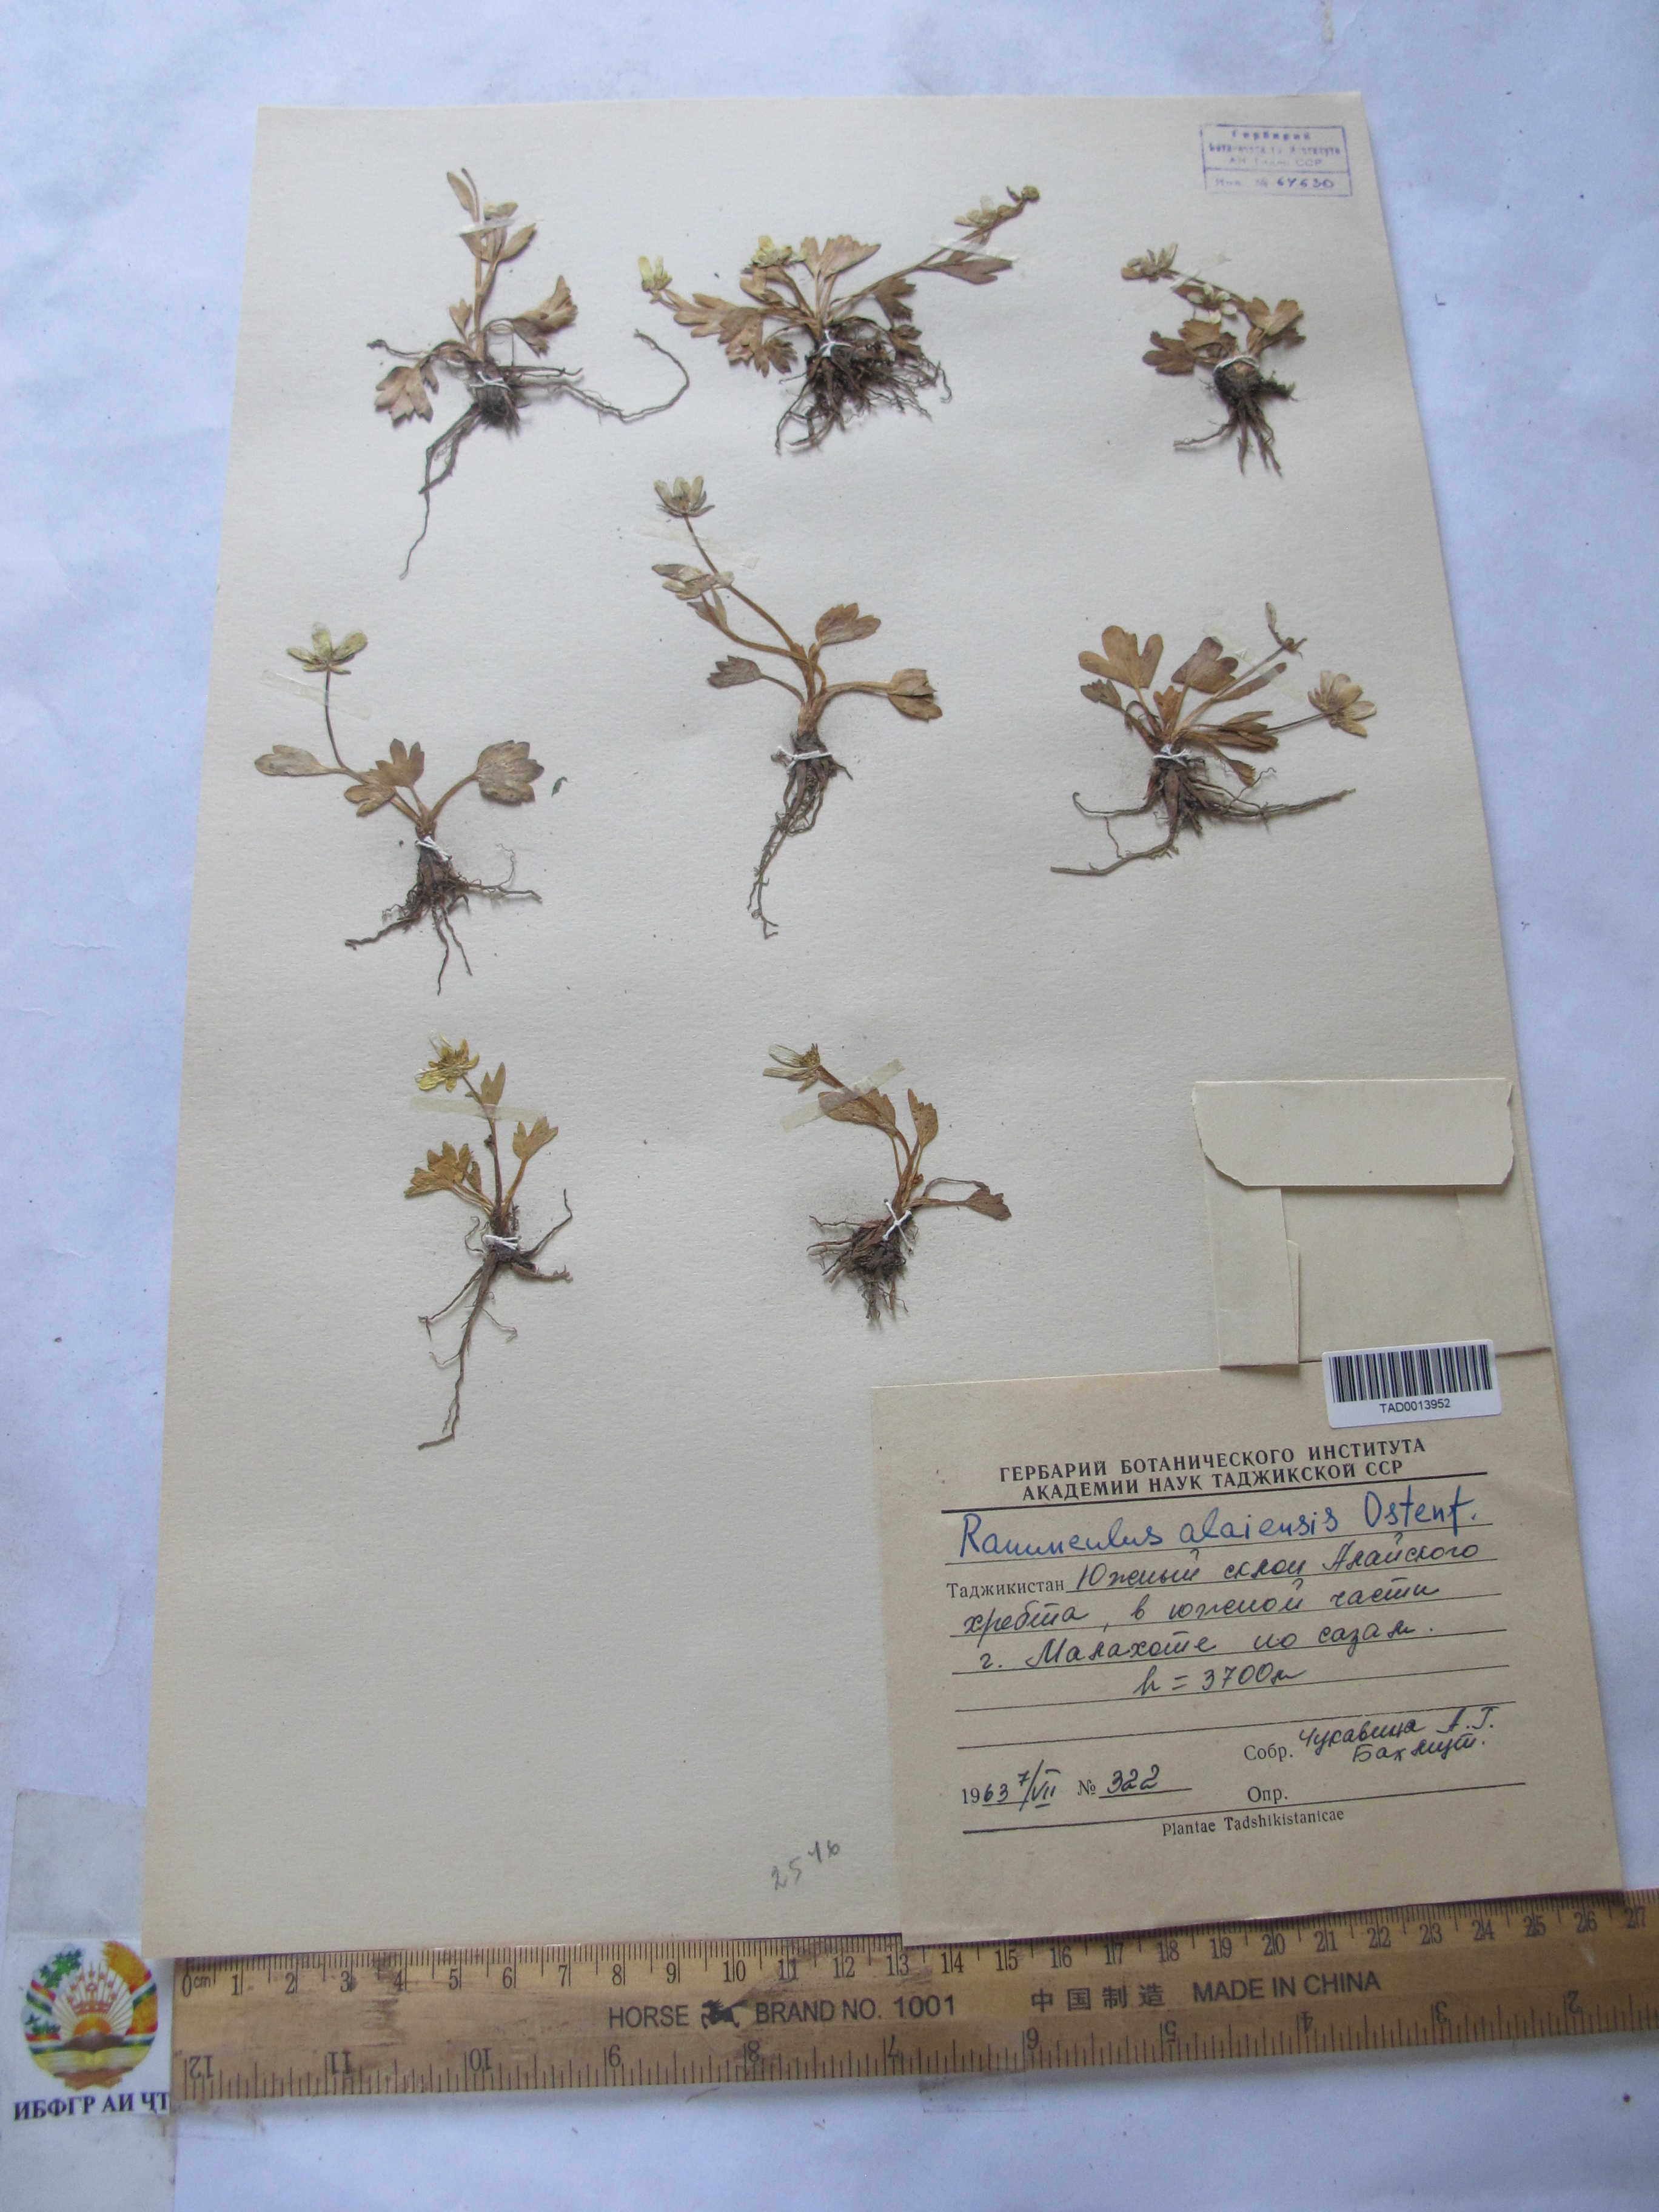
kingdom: Plantae
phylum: Tracheophyta
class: Magnoliopsida
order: Ranunculales
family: Ranunculaceae
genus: Ranunculus
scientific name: Ranunculus alaiensis
